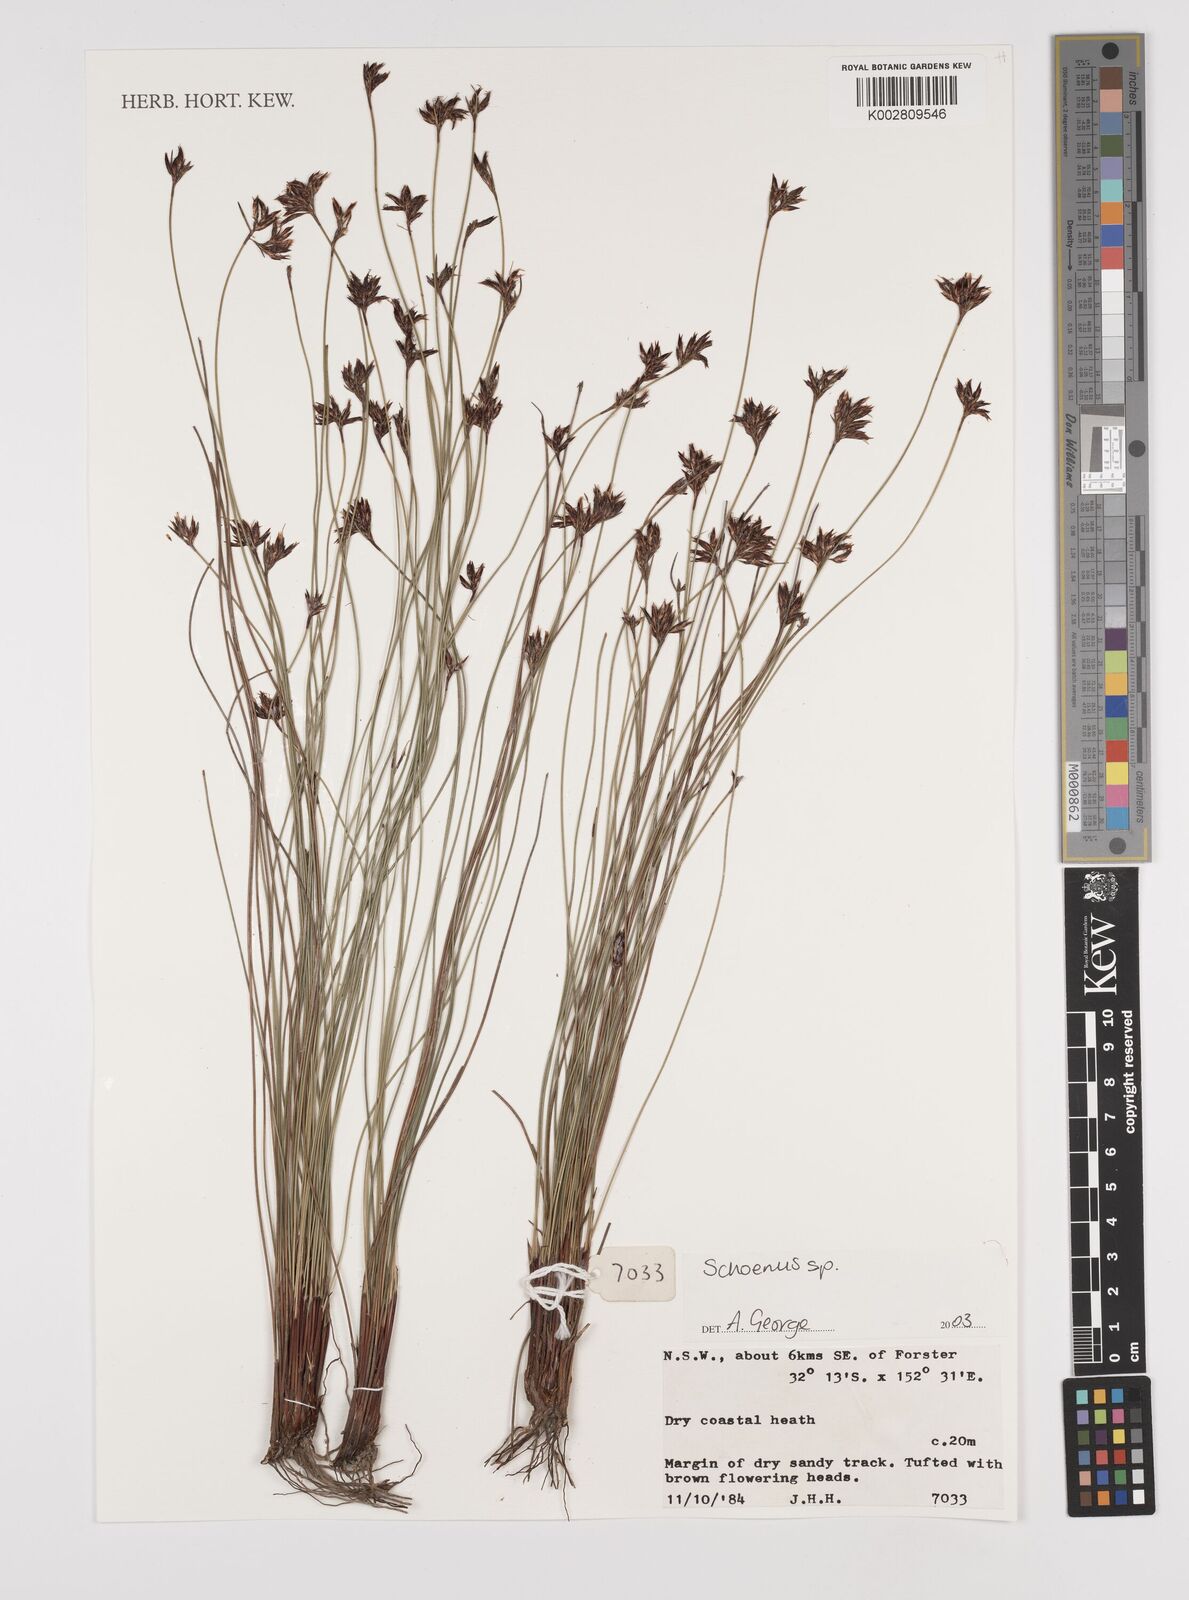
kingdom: Plantae
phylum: Tracheophyta
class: Liliopsida
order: Poales
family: Cyperaceae
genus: Schoenus
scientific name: Schoenus
